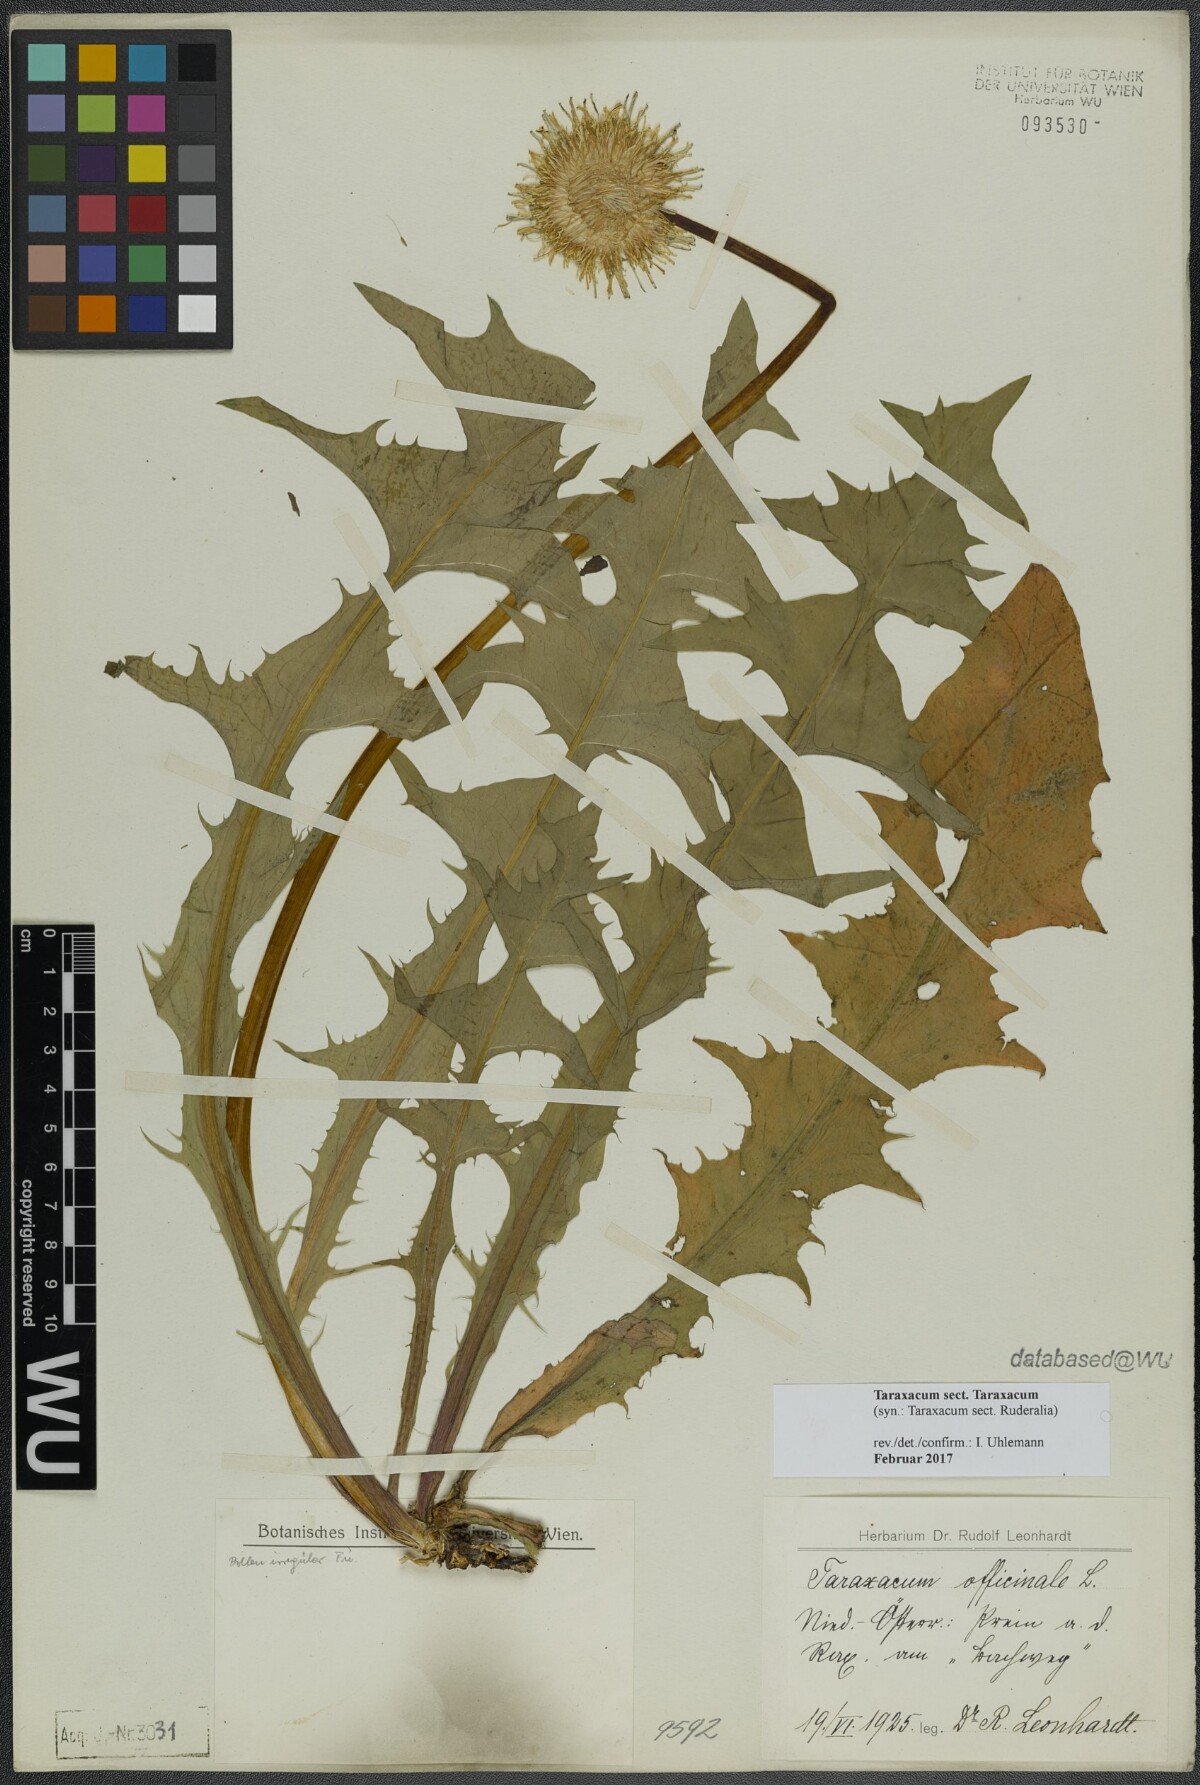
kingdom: Plantae
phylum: Tracheophyta
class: Magnoliopsida
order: Asterales
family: Asteraceae
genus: Taraxacum
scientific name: Taraxacum
